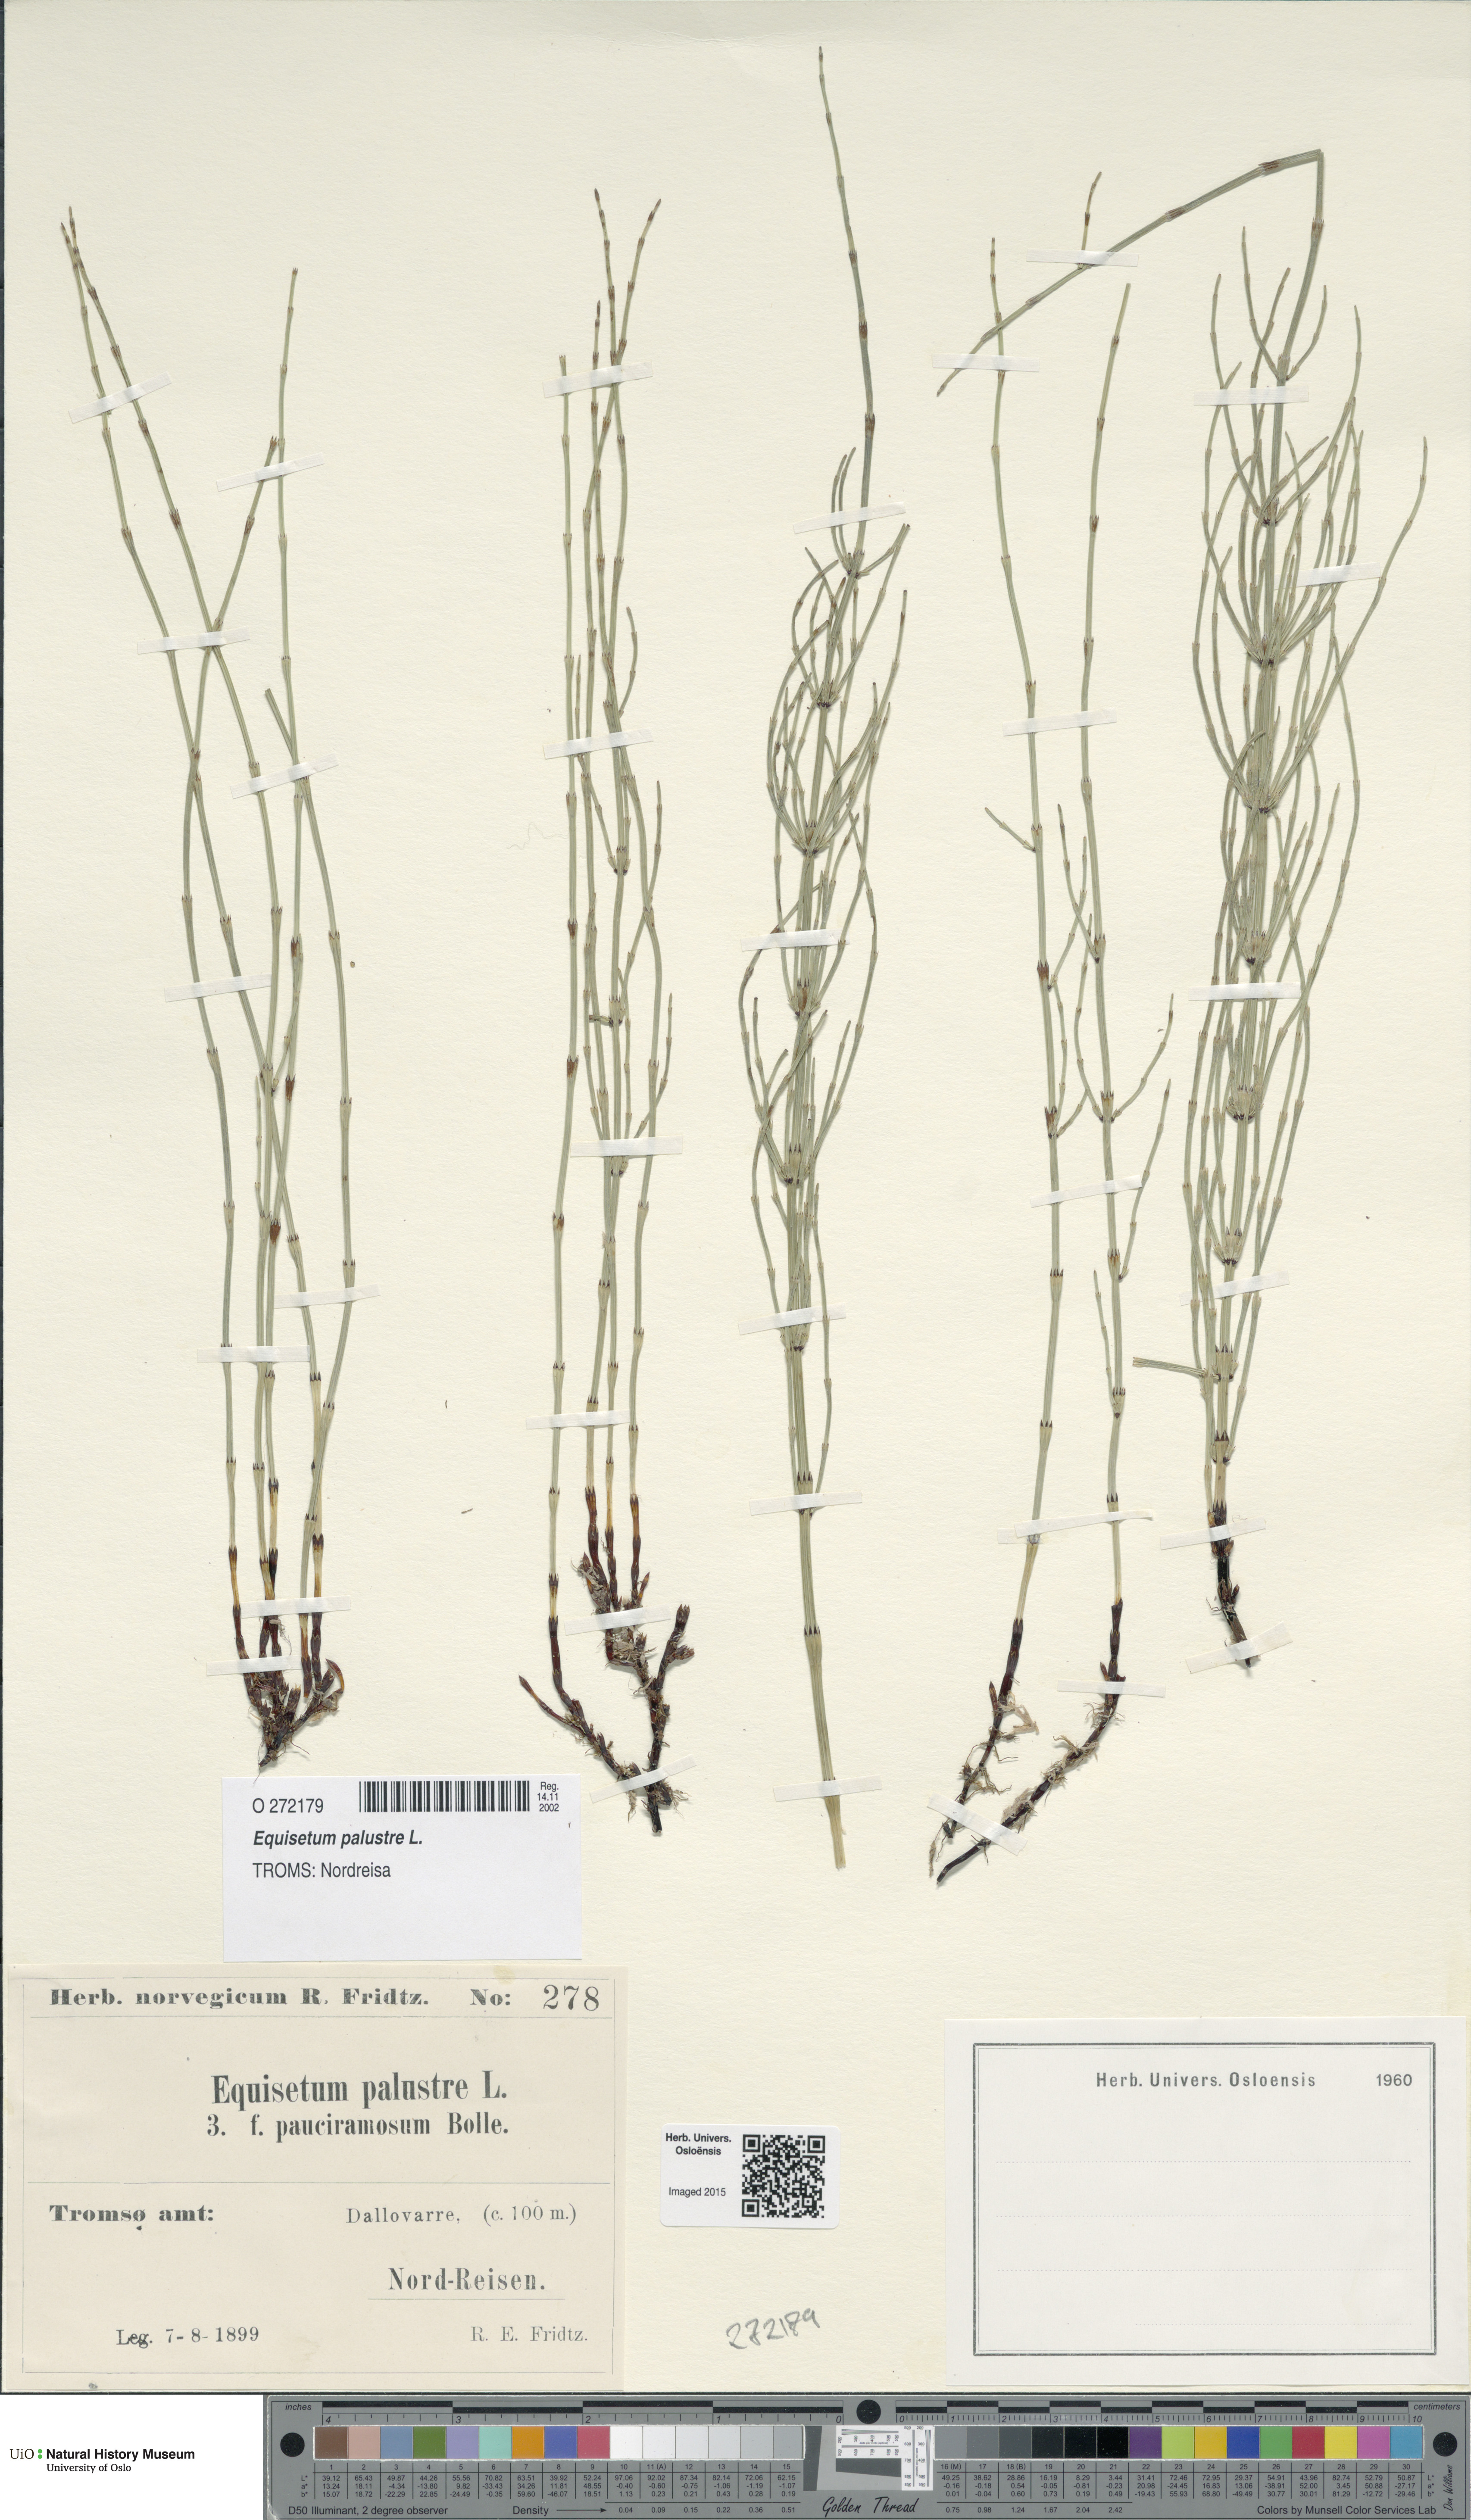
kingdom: Plantae
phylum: Tracheophyta
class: Polypodiopsida
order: Equisetales
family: Equisetaceae
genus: Equisetum
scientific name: Equisetum palustre
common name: Marsh horsetail
